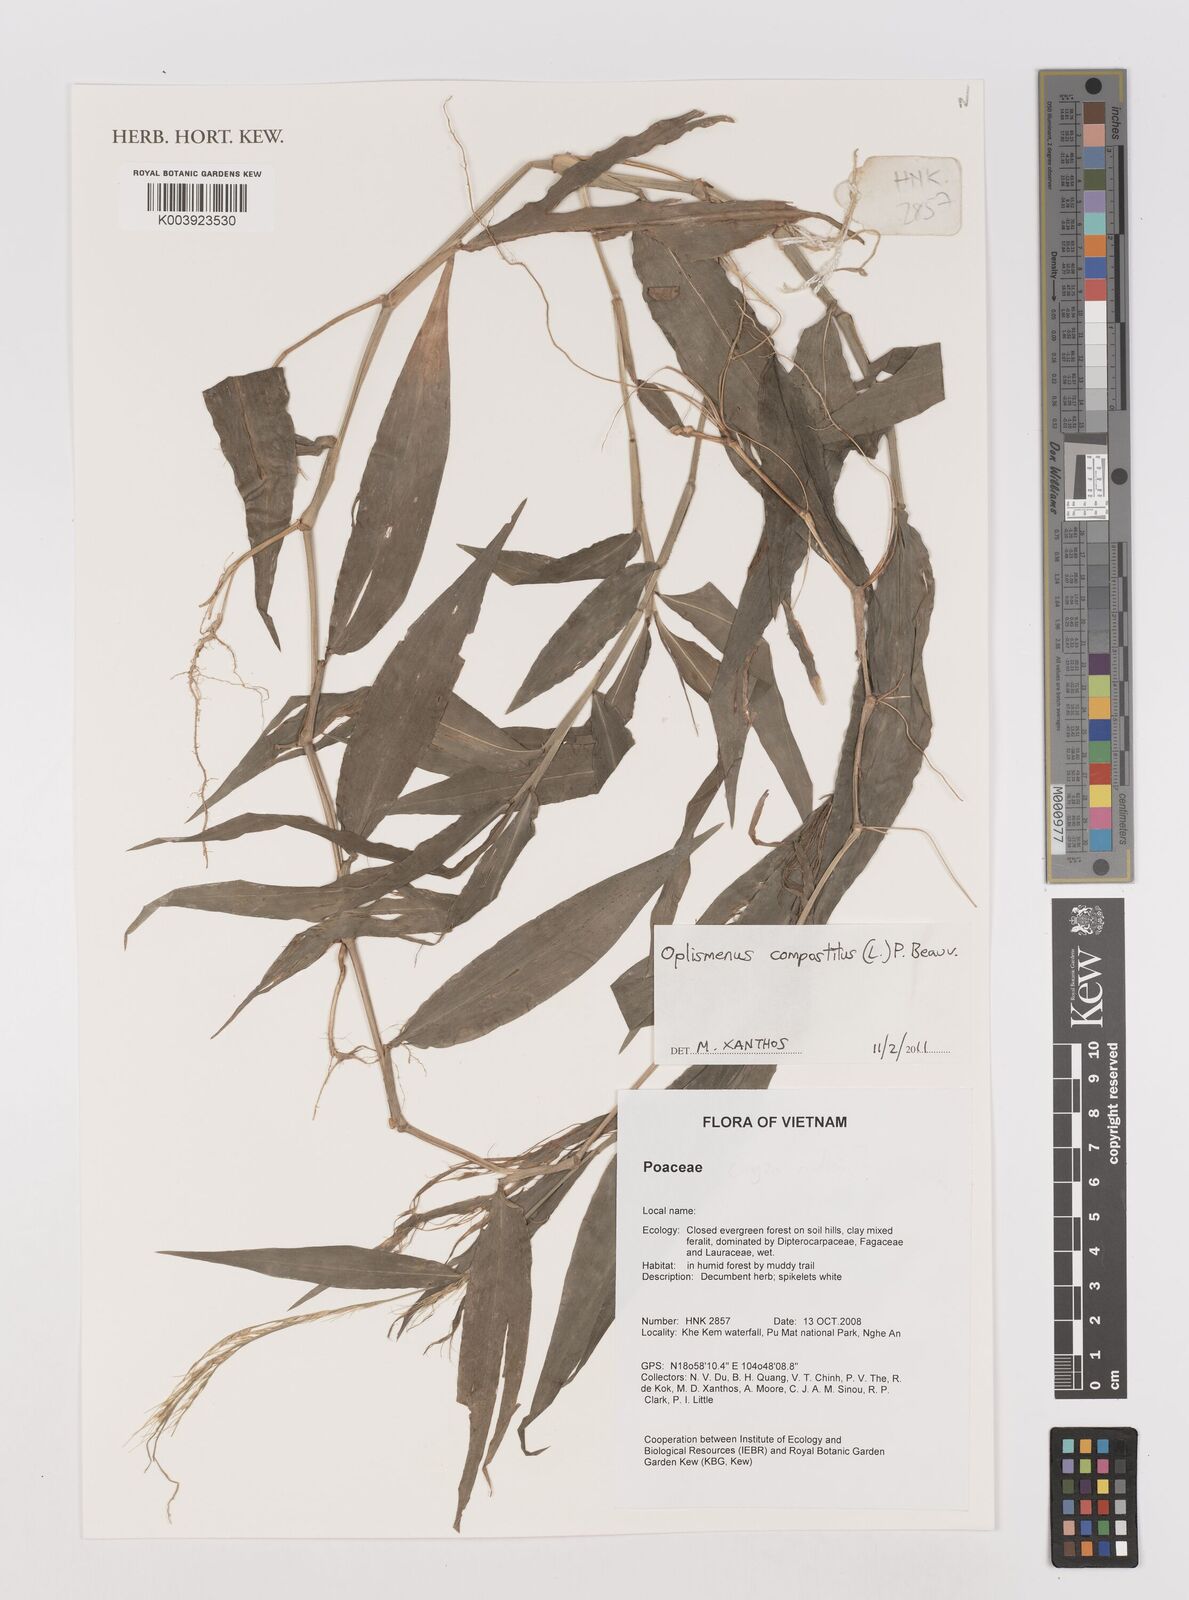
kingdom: Plantae
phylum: Tracheophyta
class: Liliopsida
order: Poales
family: Poaceae
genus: Oplismenus
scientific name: Oplismenus compositus
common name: Running mountain grass
